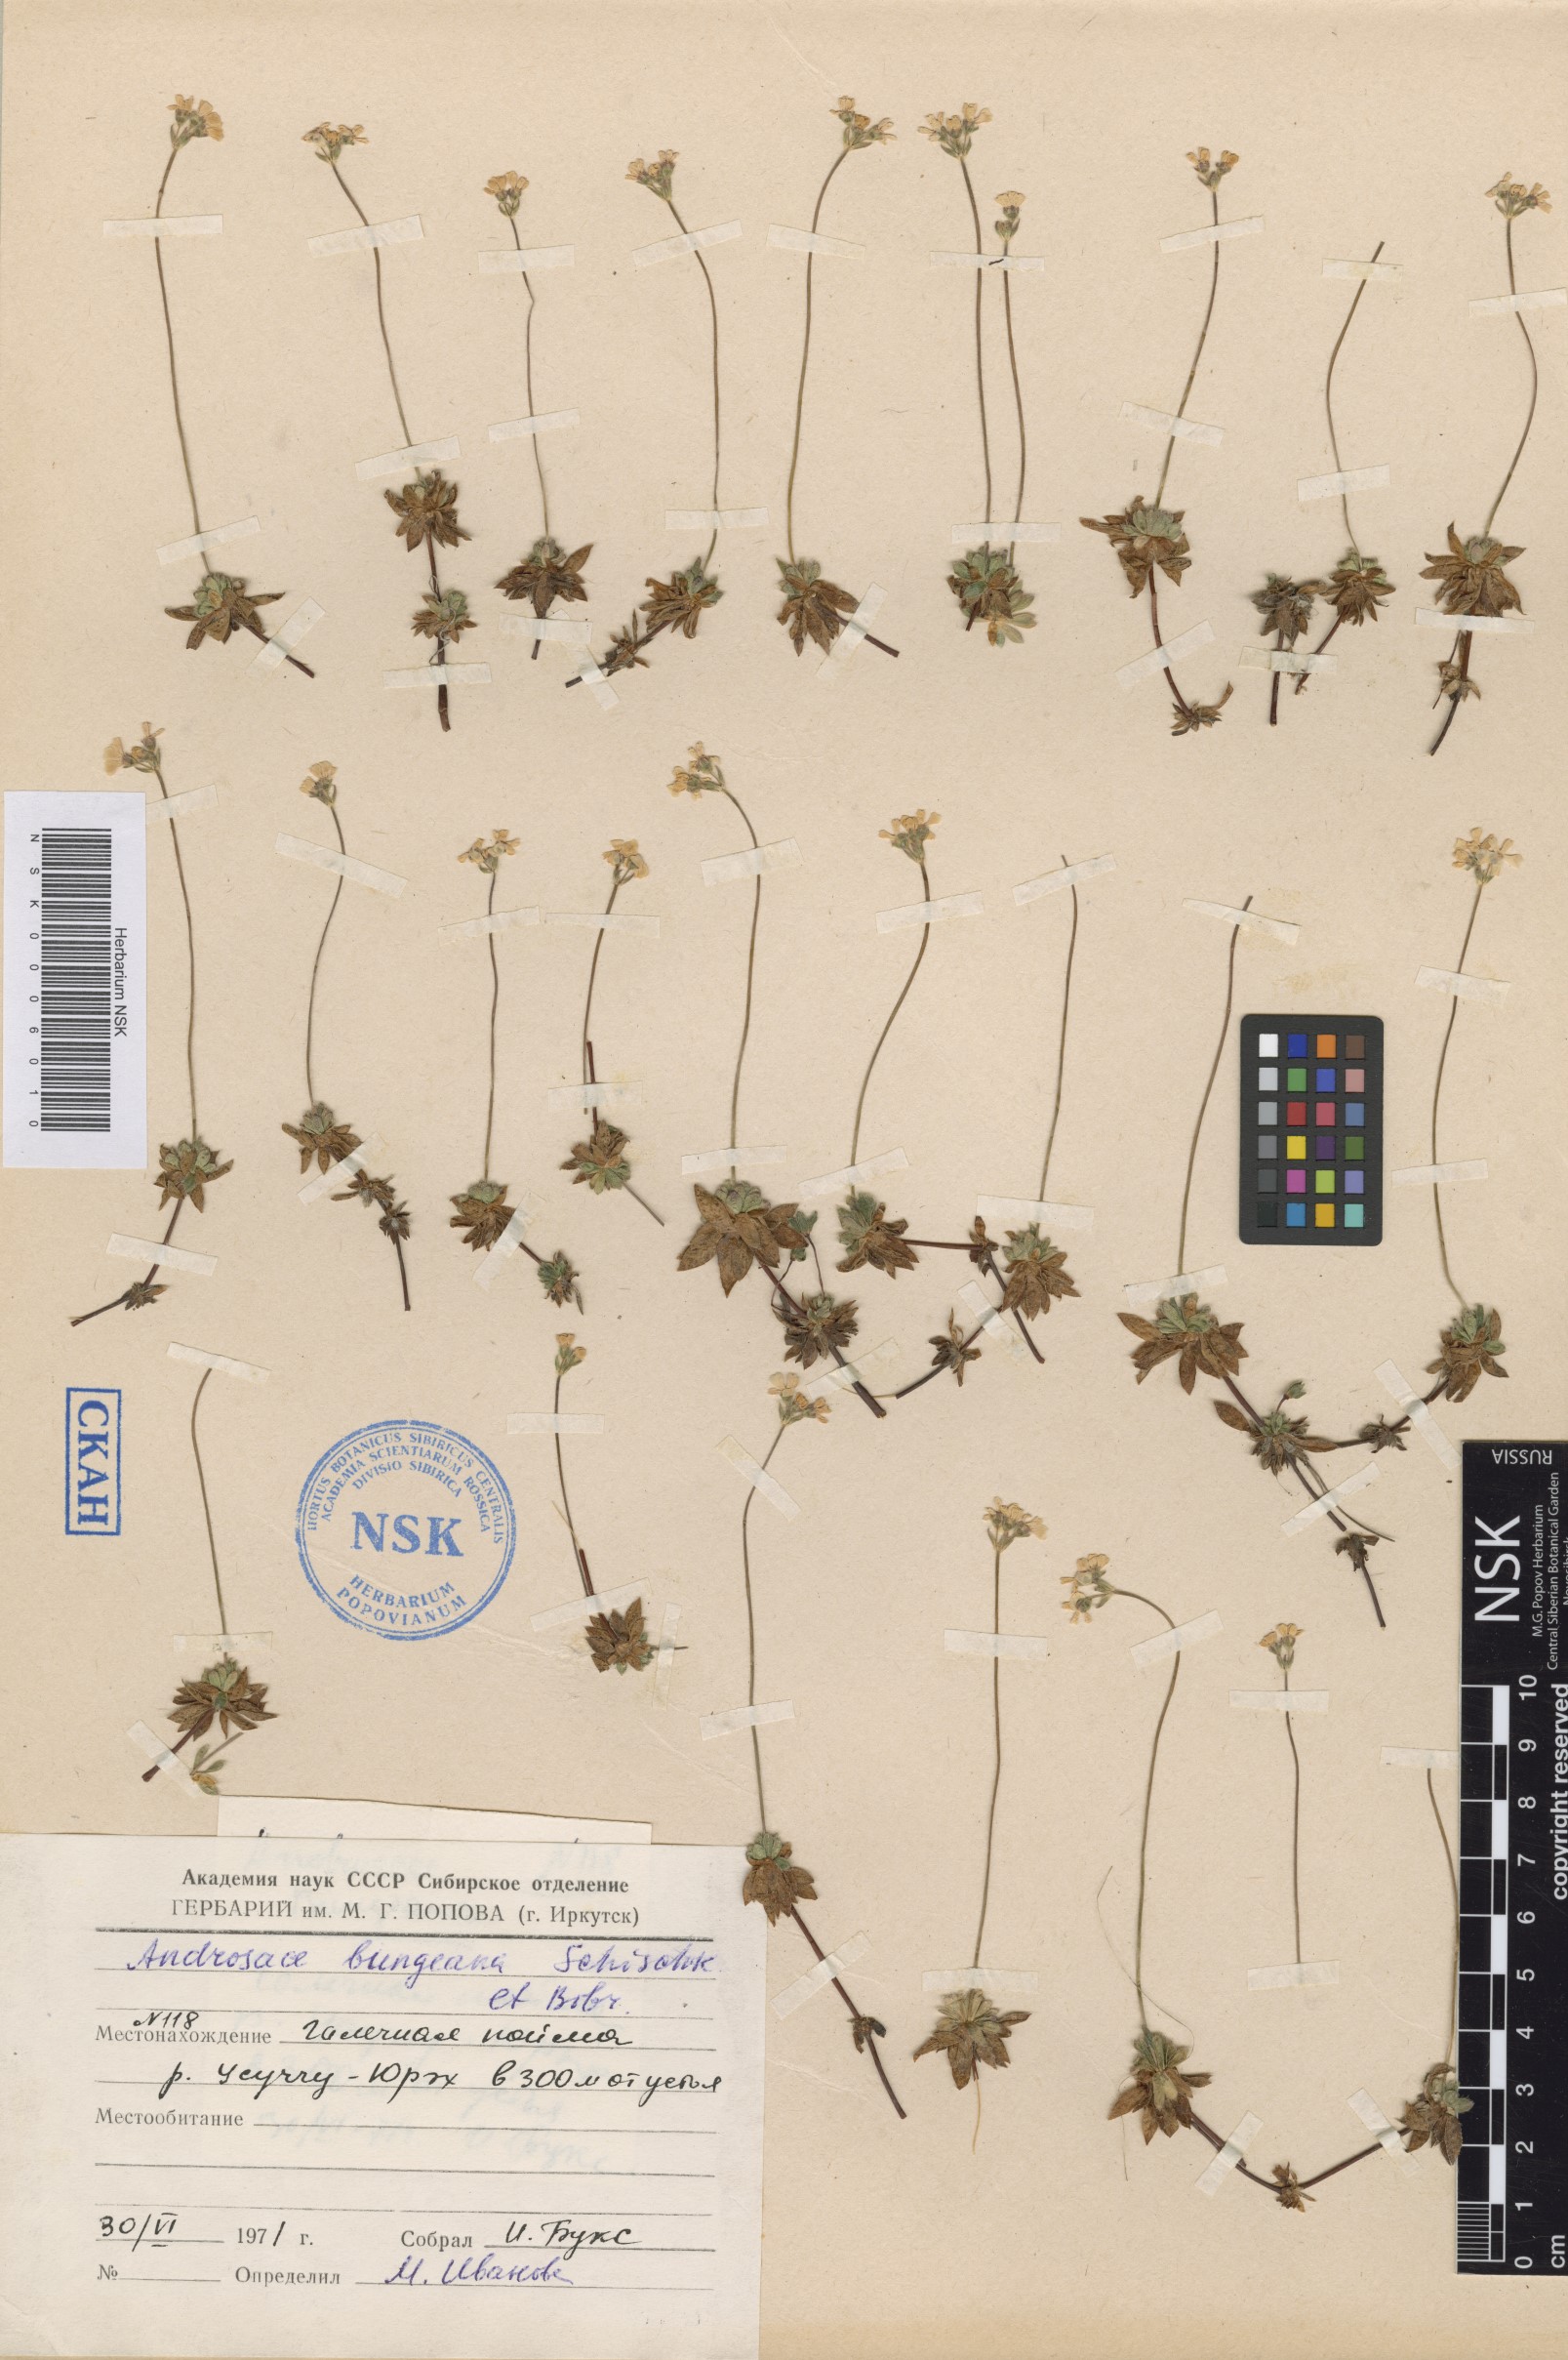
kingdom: Plantae
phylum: Tracheophyta
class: Magnoliopsida
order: Ericales
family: Primulaceae
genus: Androsace
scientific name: Androsace bungeana
